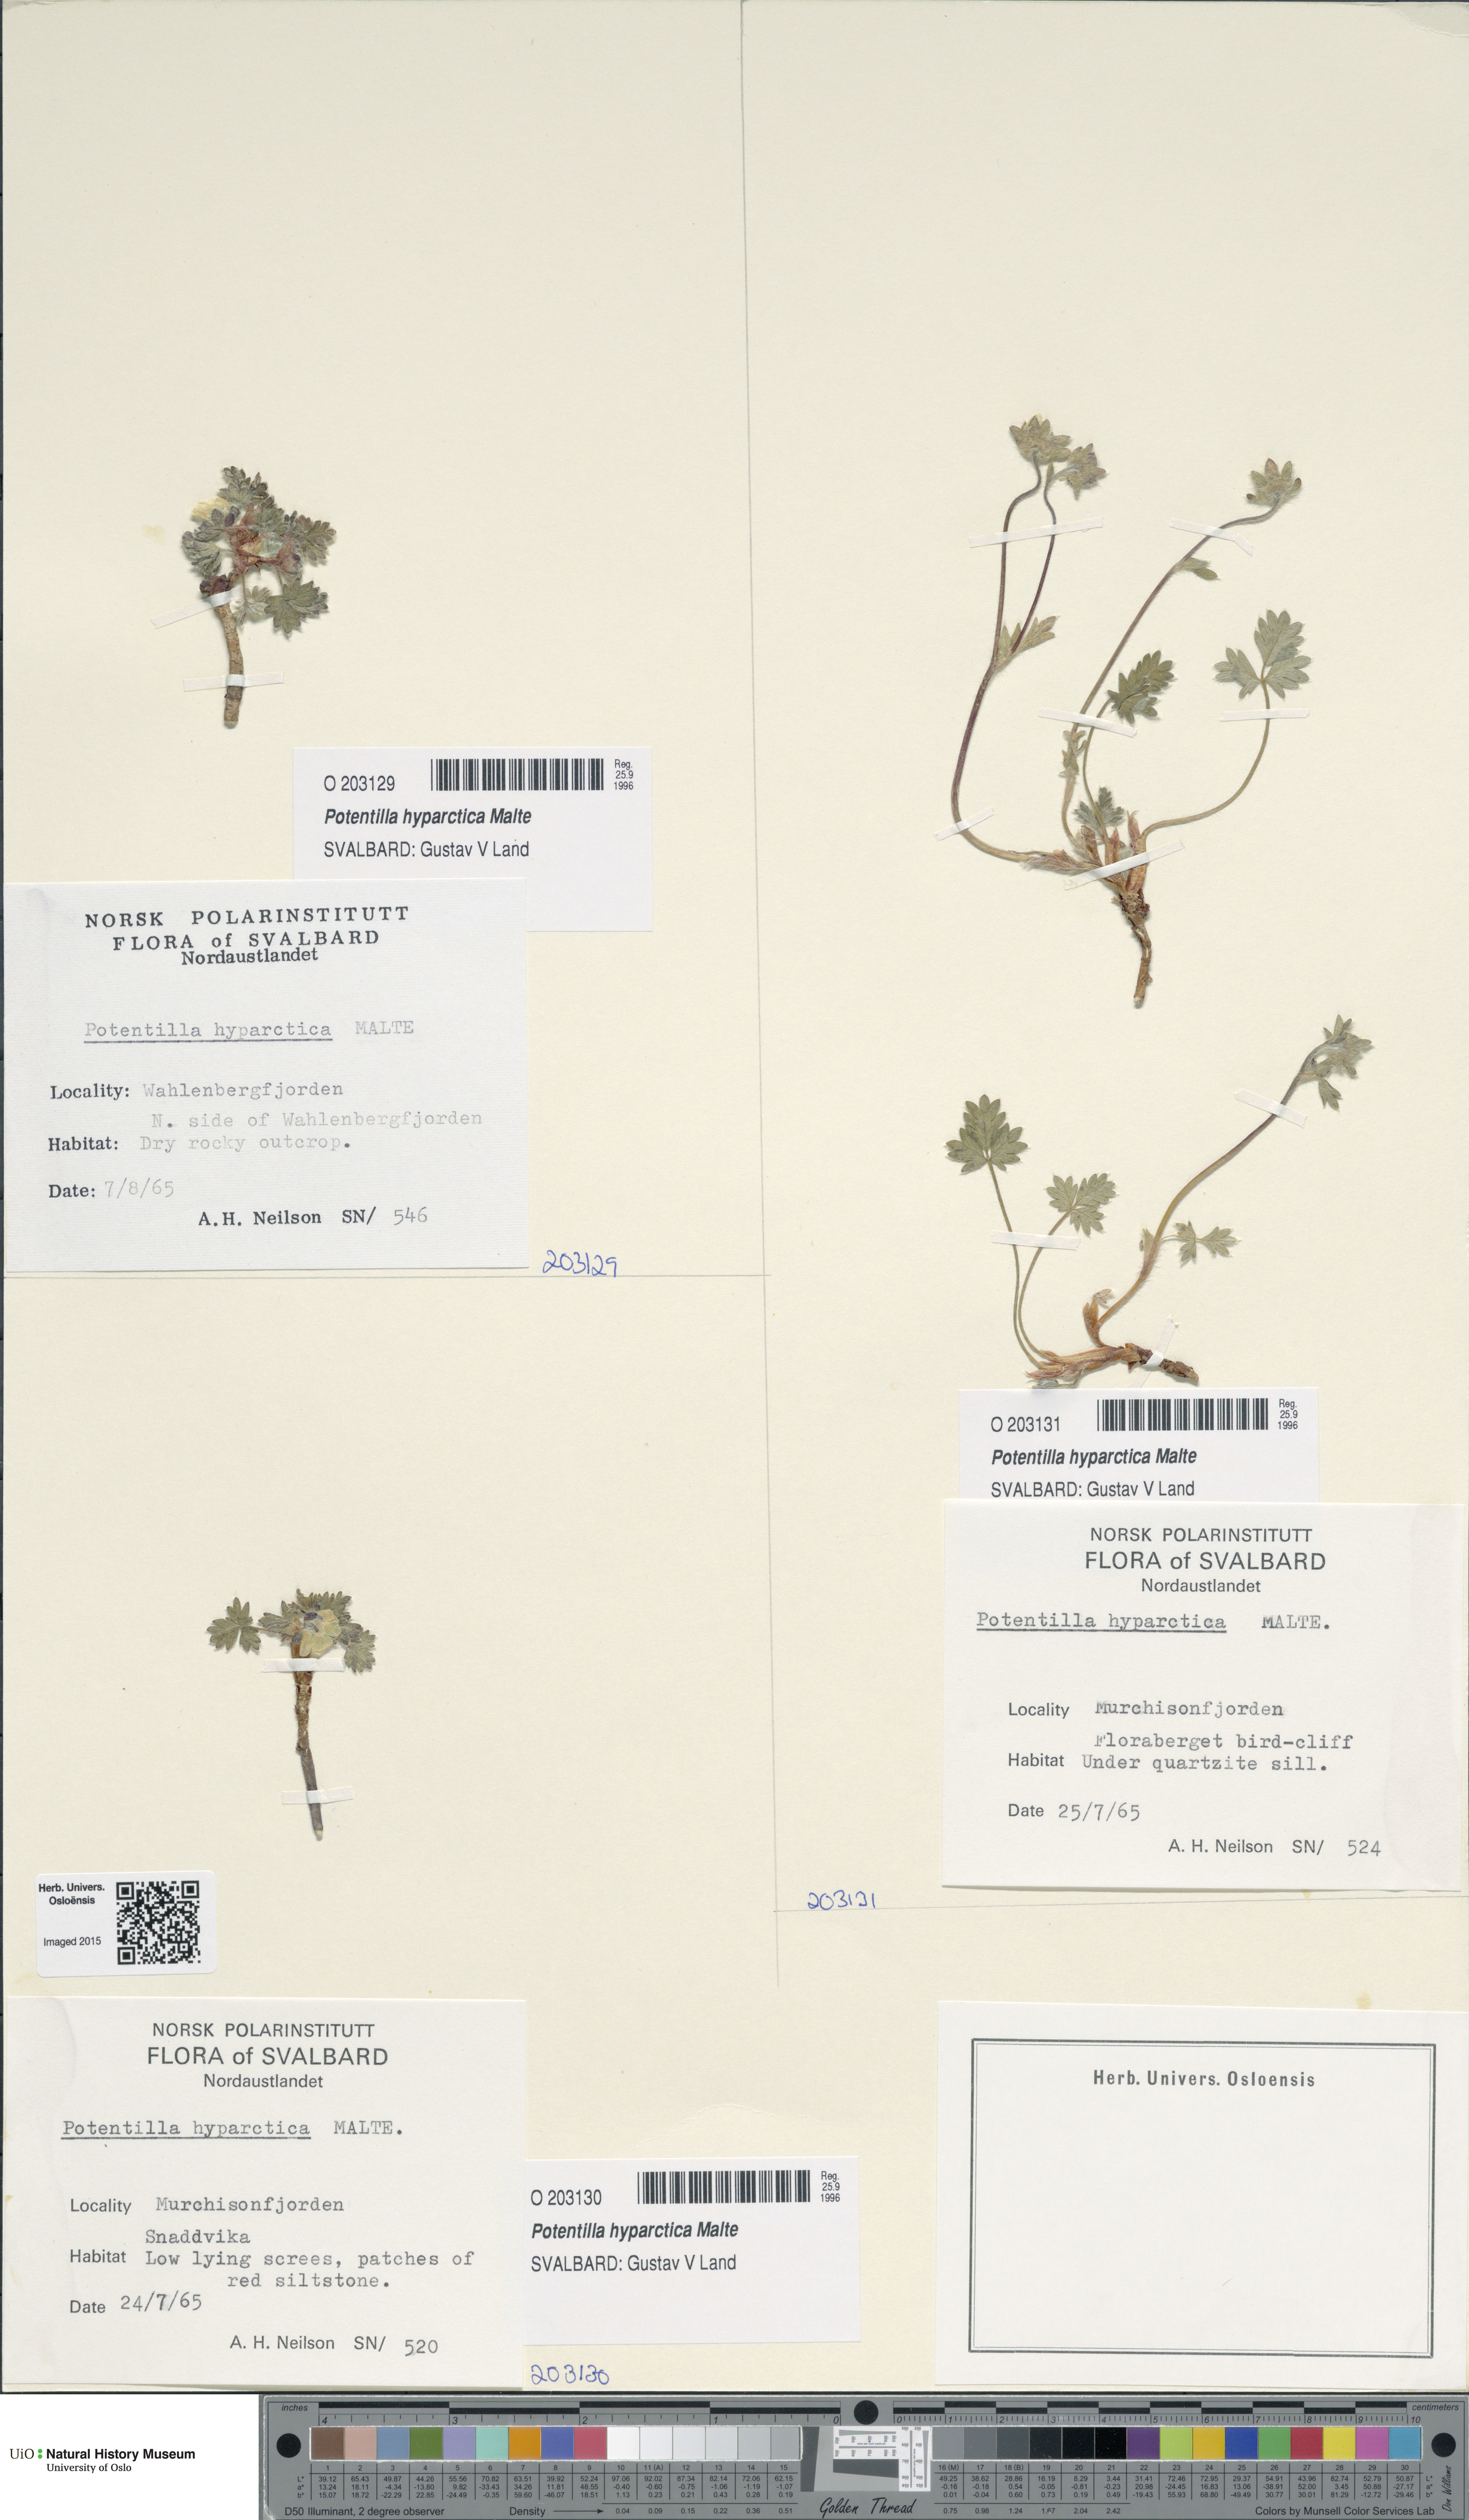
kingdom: Plantae
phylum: Tracheophyta
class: Magnoliopsida
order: Rosales
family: Rosaceae
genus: Potentilla
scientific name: Potentilla hyparctica
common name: Arctic cinquefoil
